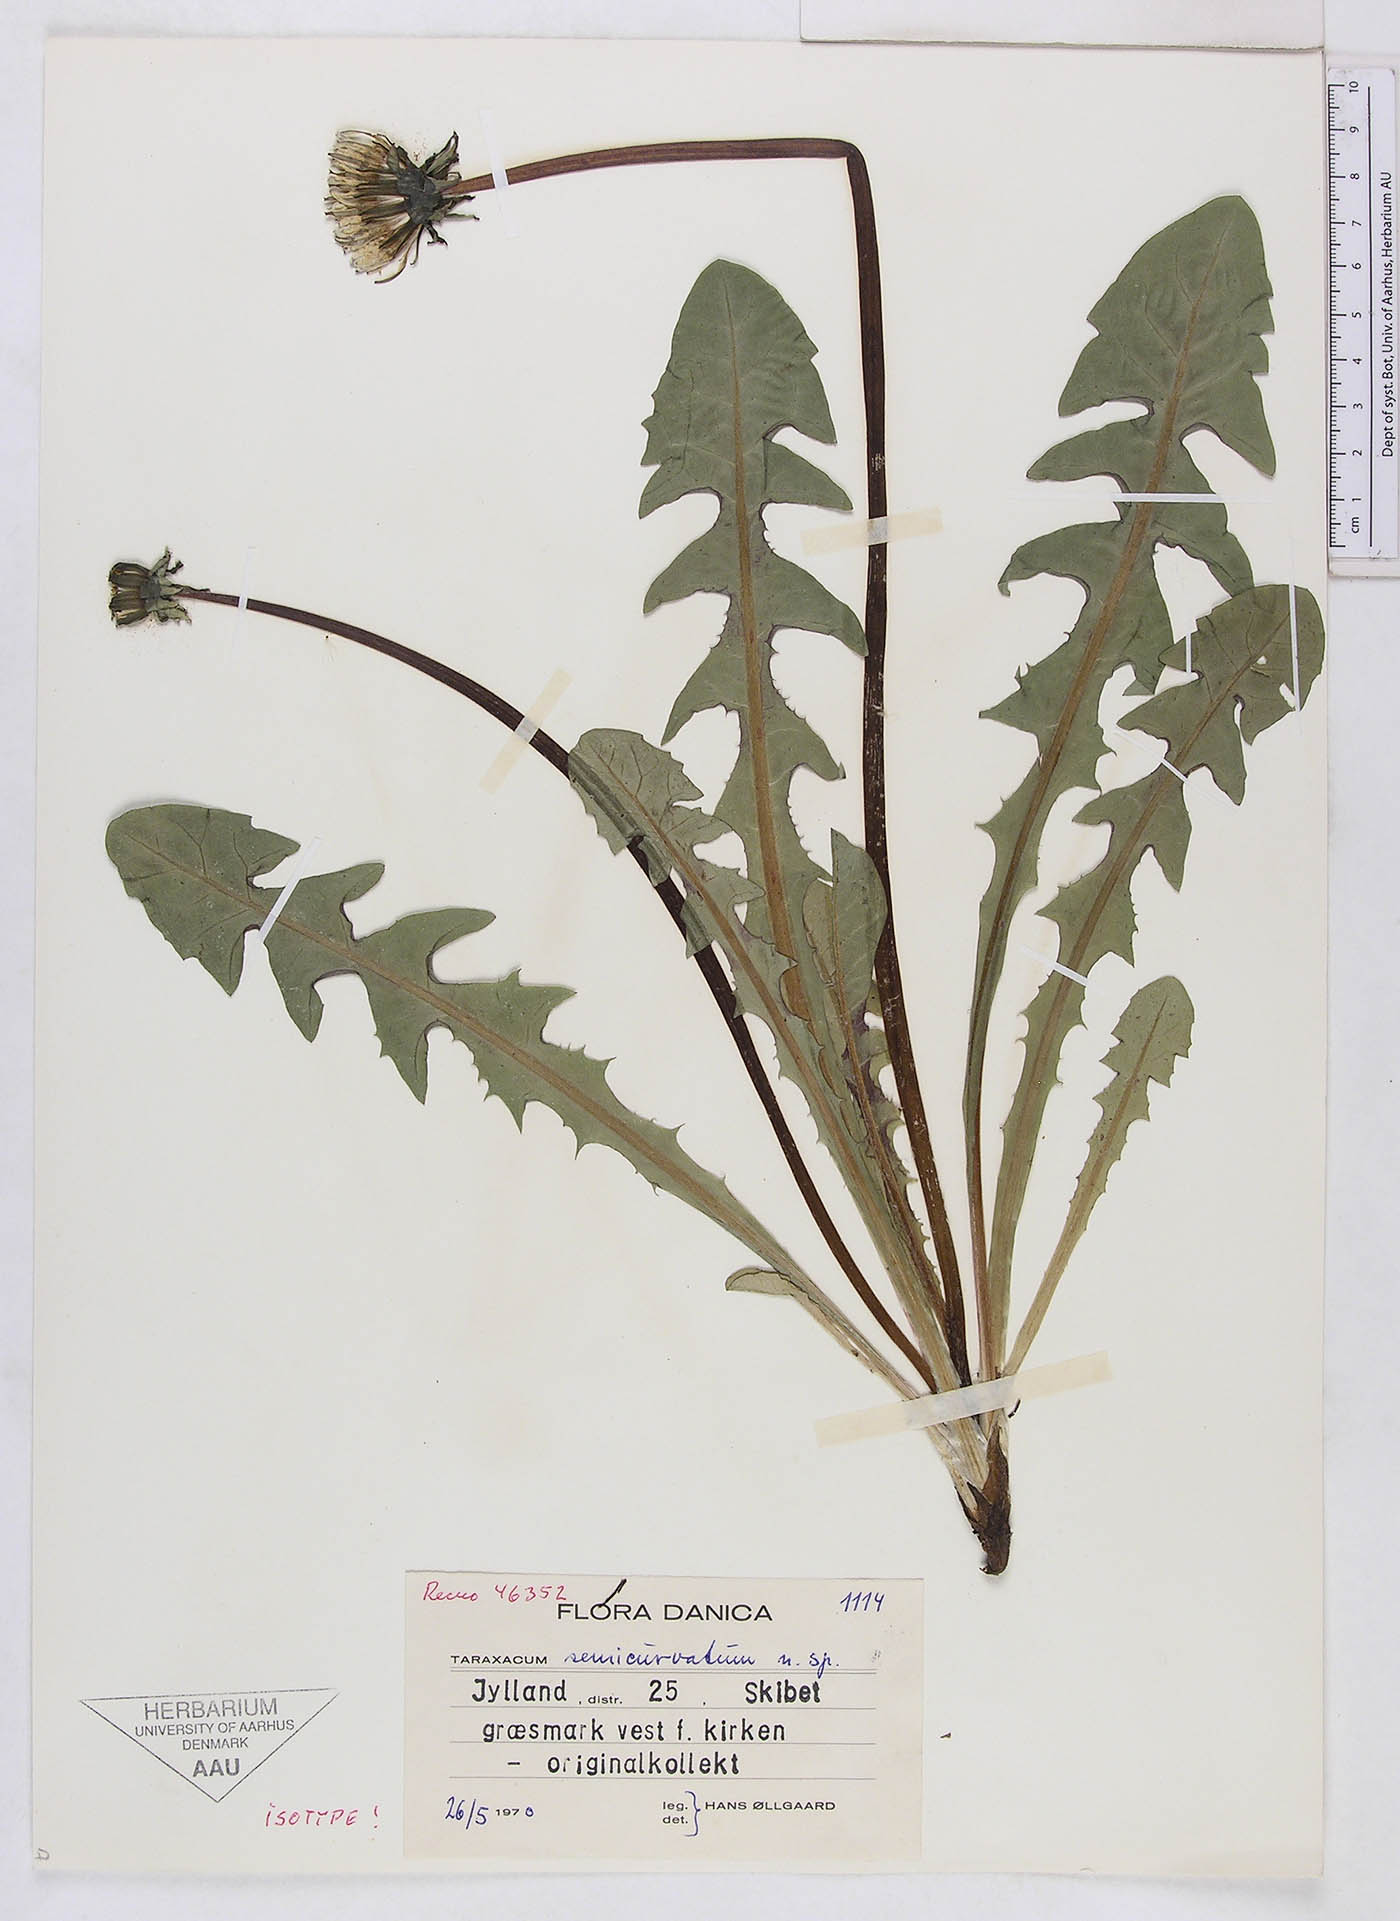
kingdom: Plantae
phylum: Tracheophyta
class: Magnoliopsida
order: Asterales
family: Asteraceae
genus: Taraxacum
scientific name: Taraxacum semicurvatum
